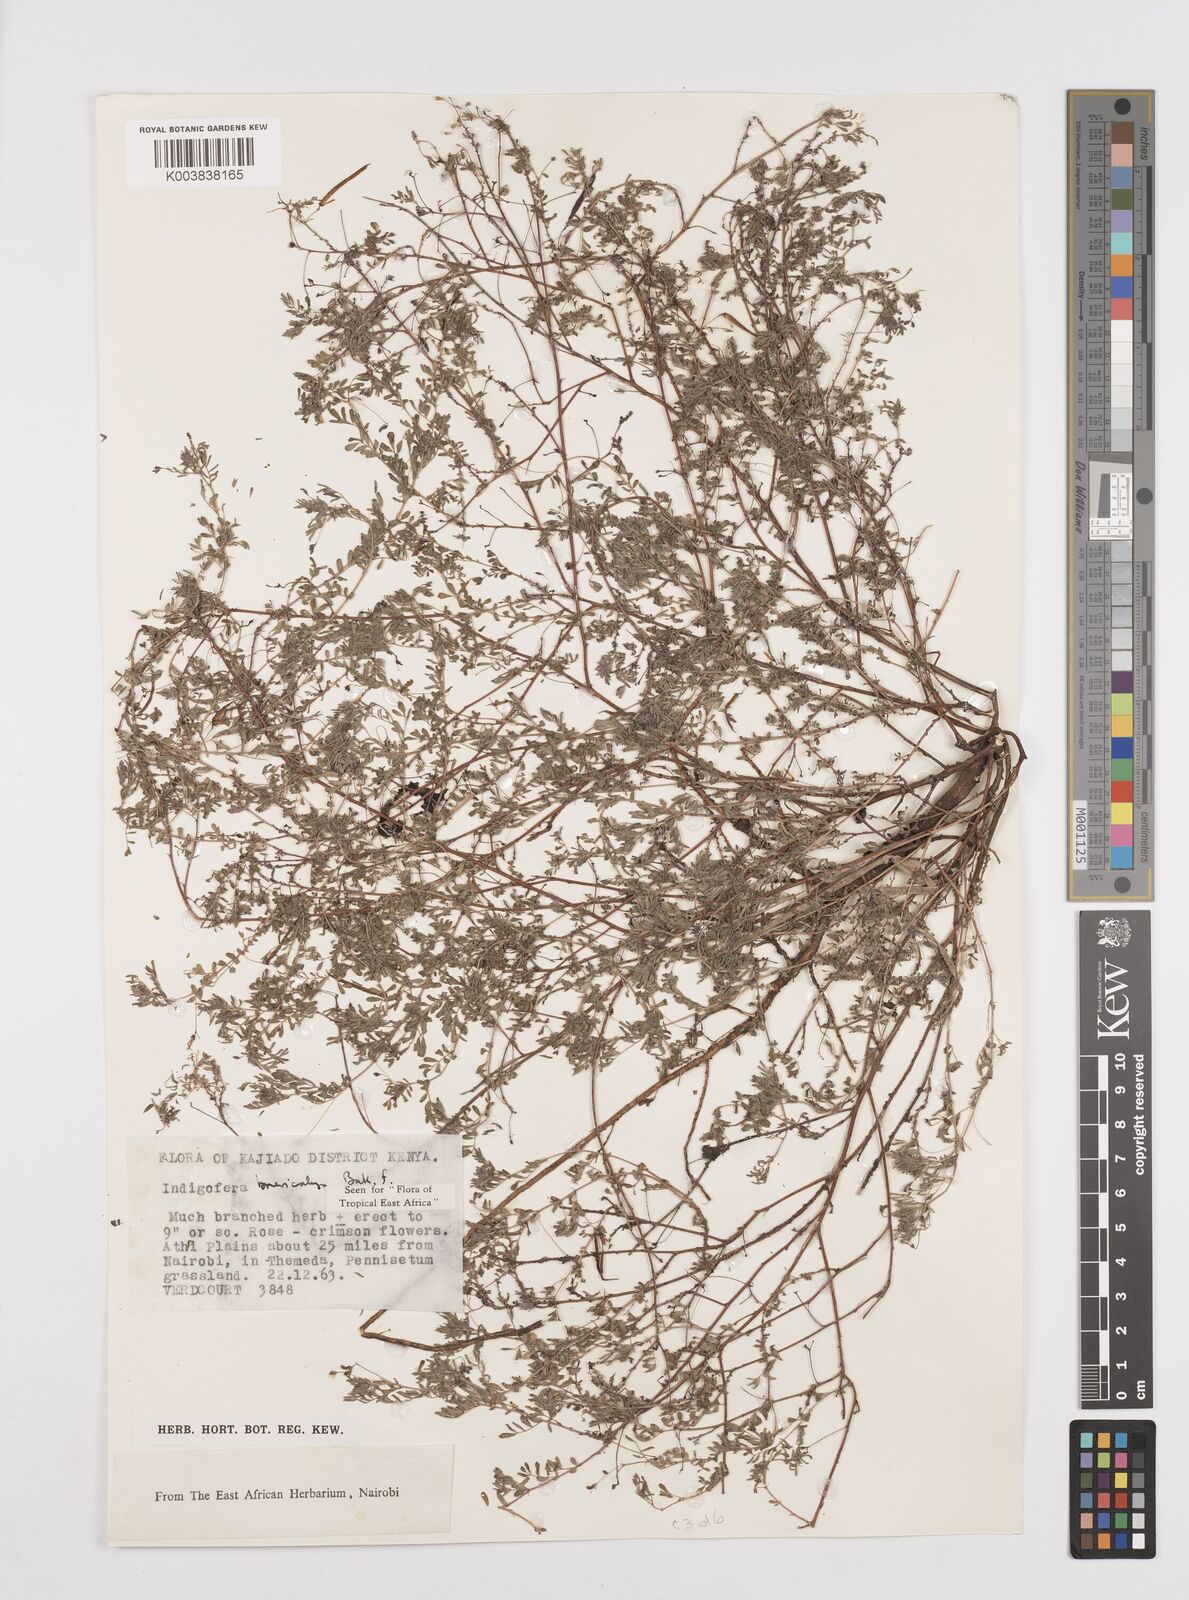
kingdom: Plantae
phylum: Tracheophyta
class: Magnoliopsida
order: Fabales
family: Fabaceae
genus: Indigofera
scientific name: Indigofera brevicalyx
